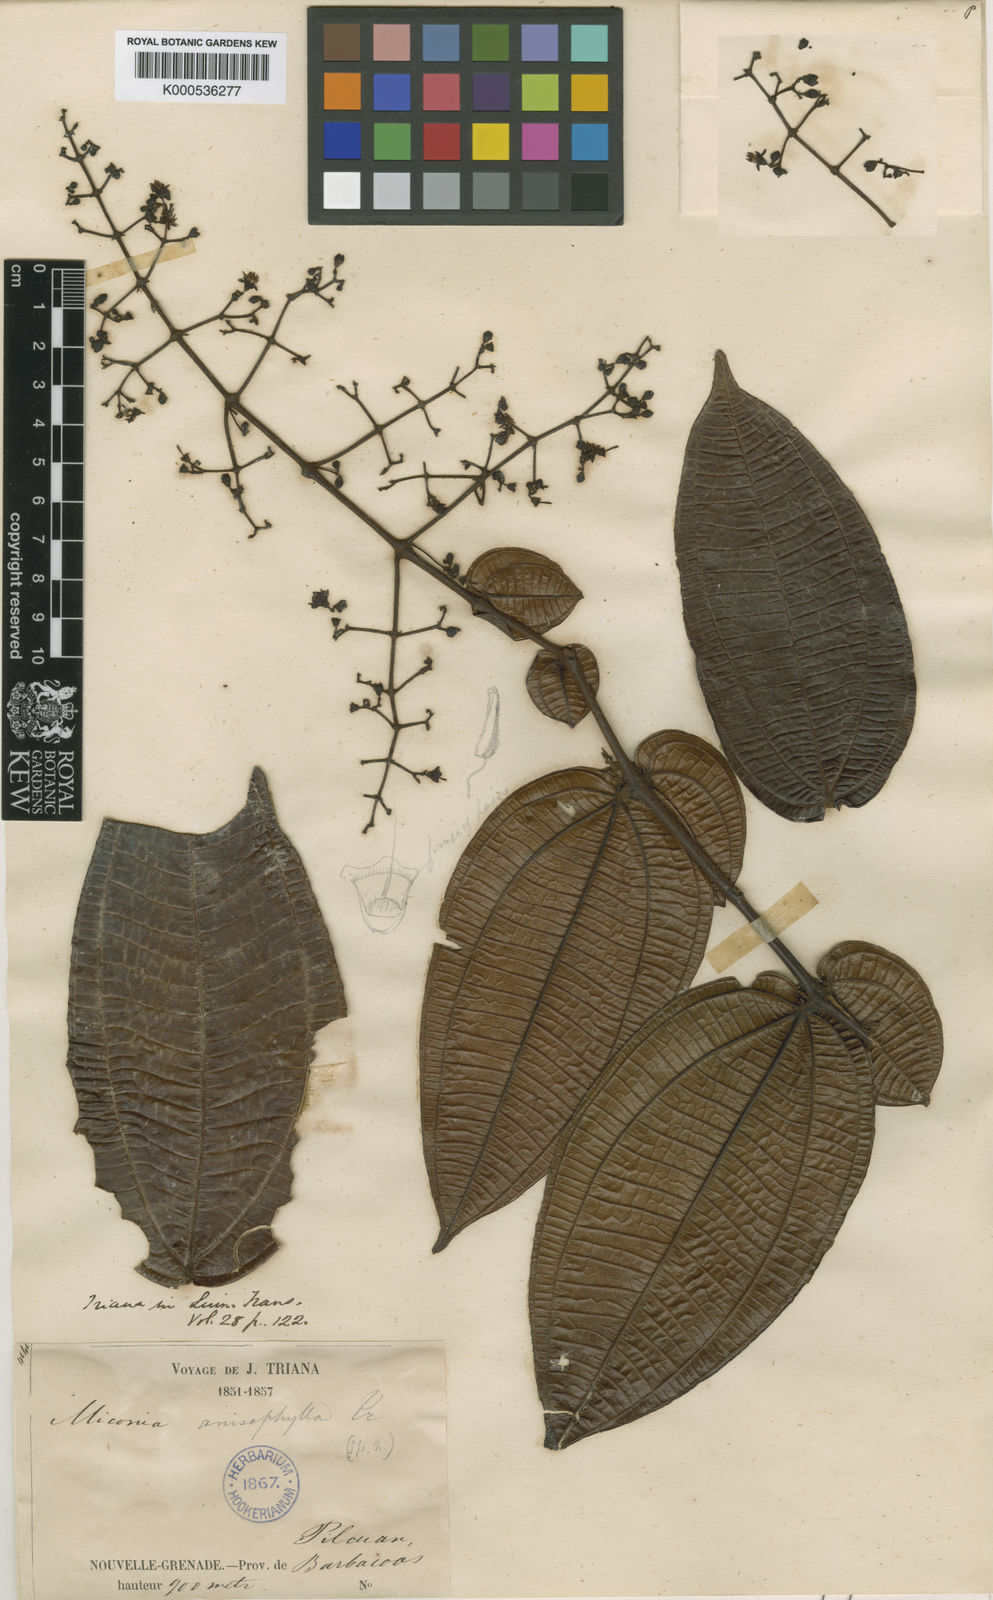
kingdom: Plantae
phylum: Tracheophyta
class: Magnoliopsida
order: Myrtales
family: Melastomataceae
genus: Miconia
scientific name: Miconia anisophylla
